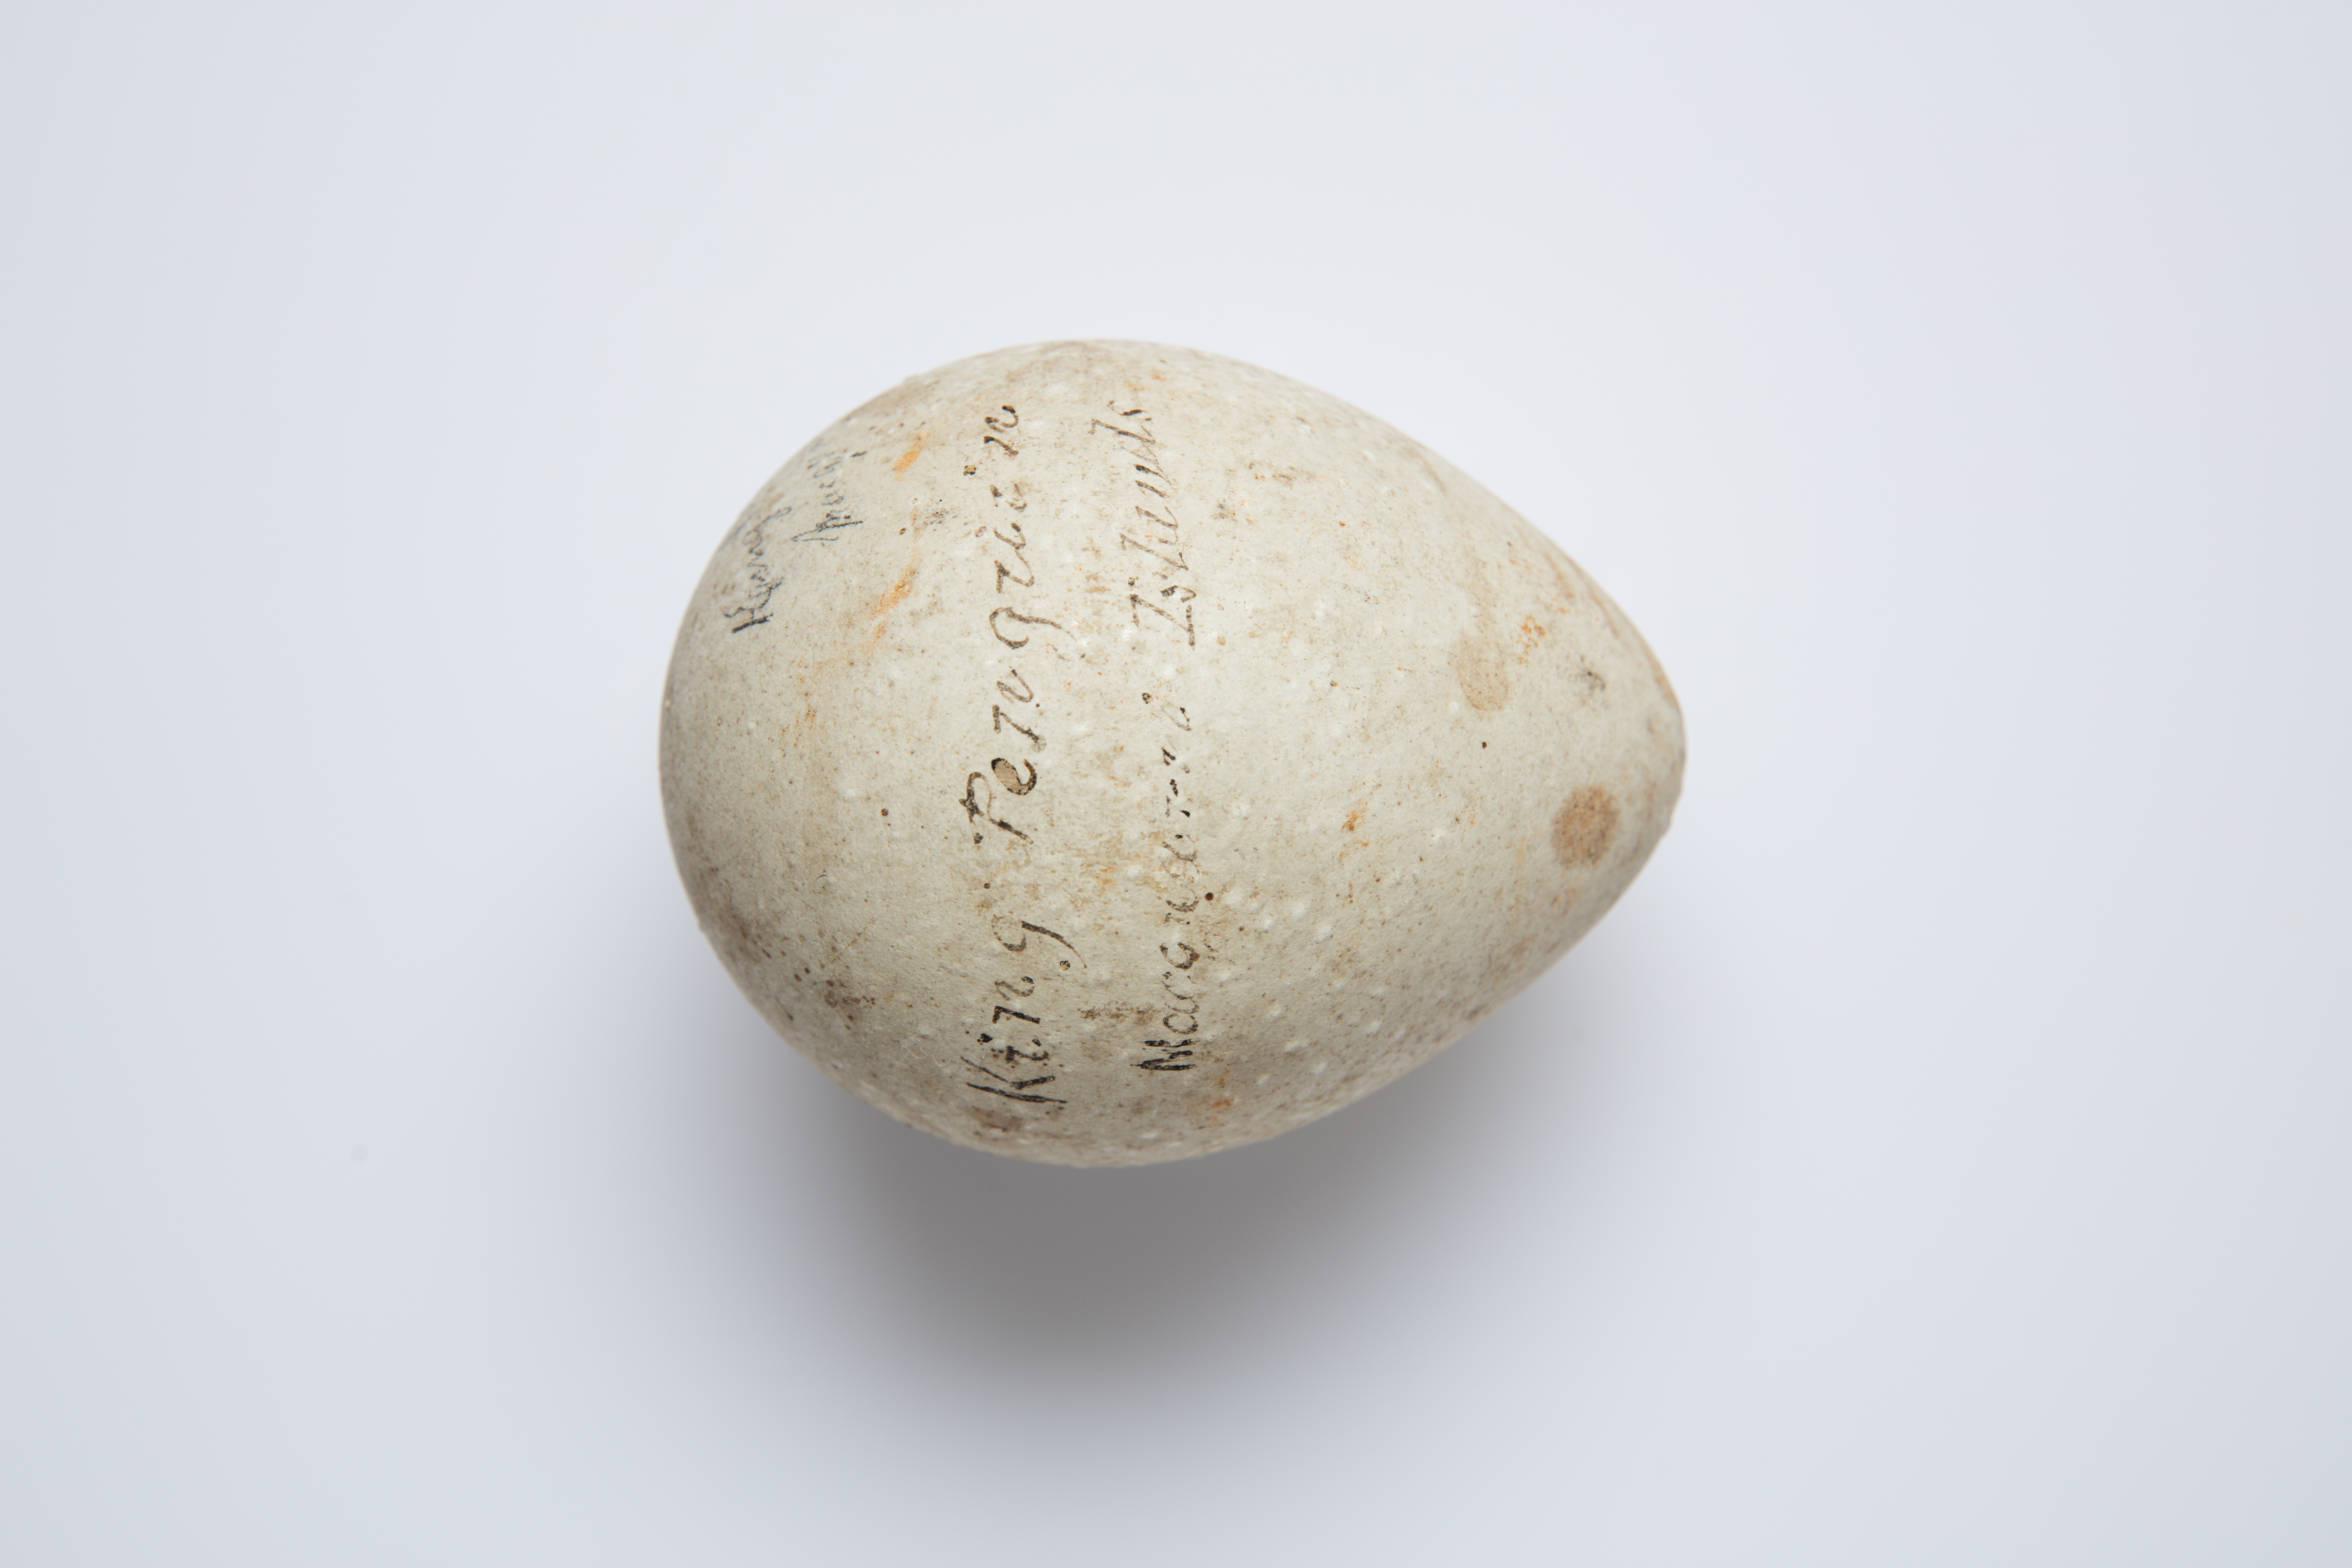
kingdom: Animalia
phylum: Chordata
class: Aves
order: Sphenisciformes
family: Spheniscidae
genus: Aptenodytes
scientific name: Aptenodytes patagonicus
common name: King penguin
